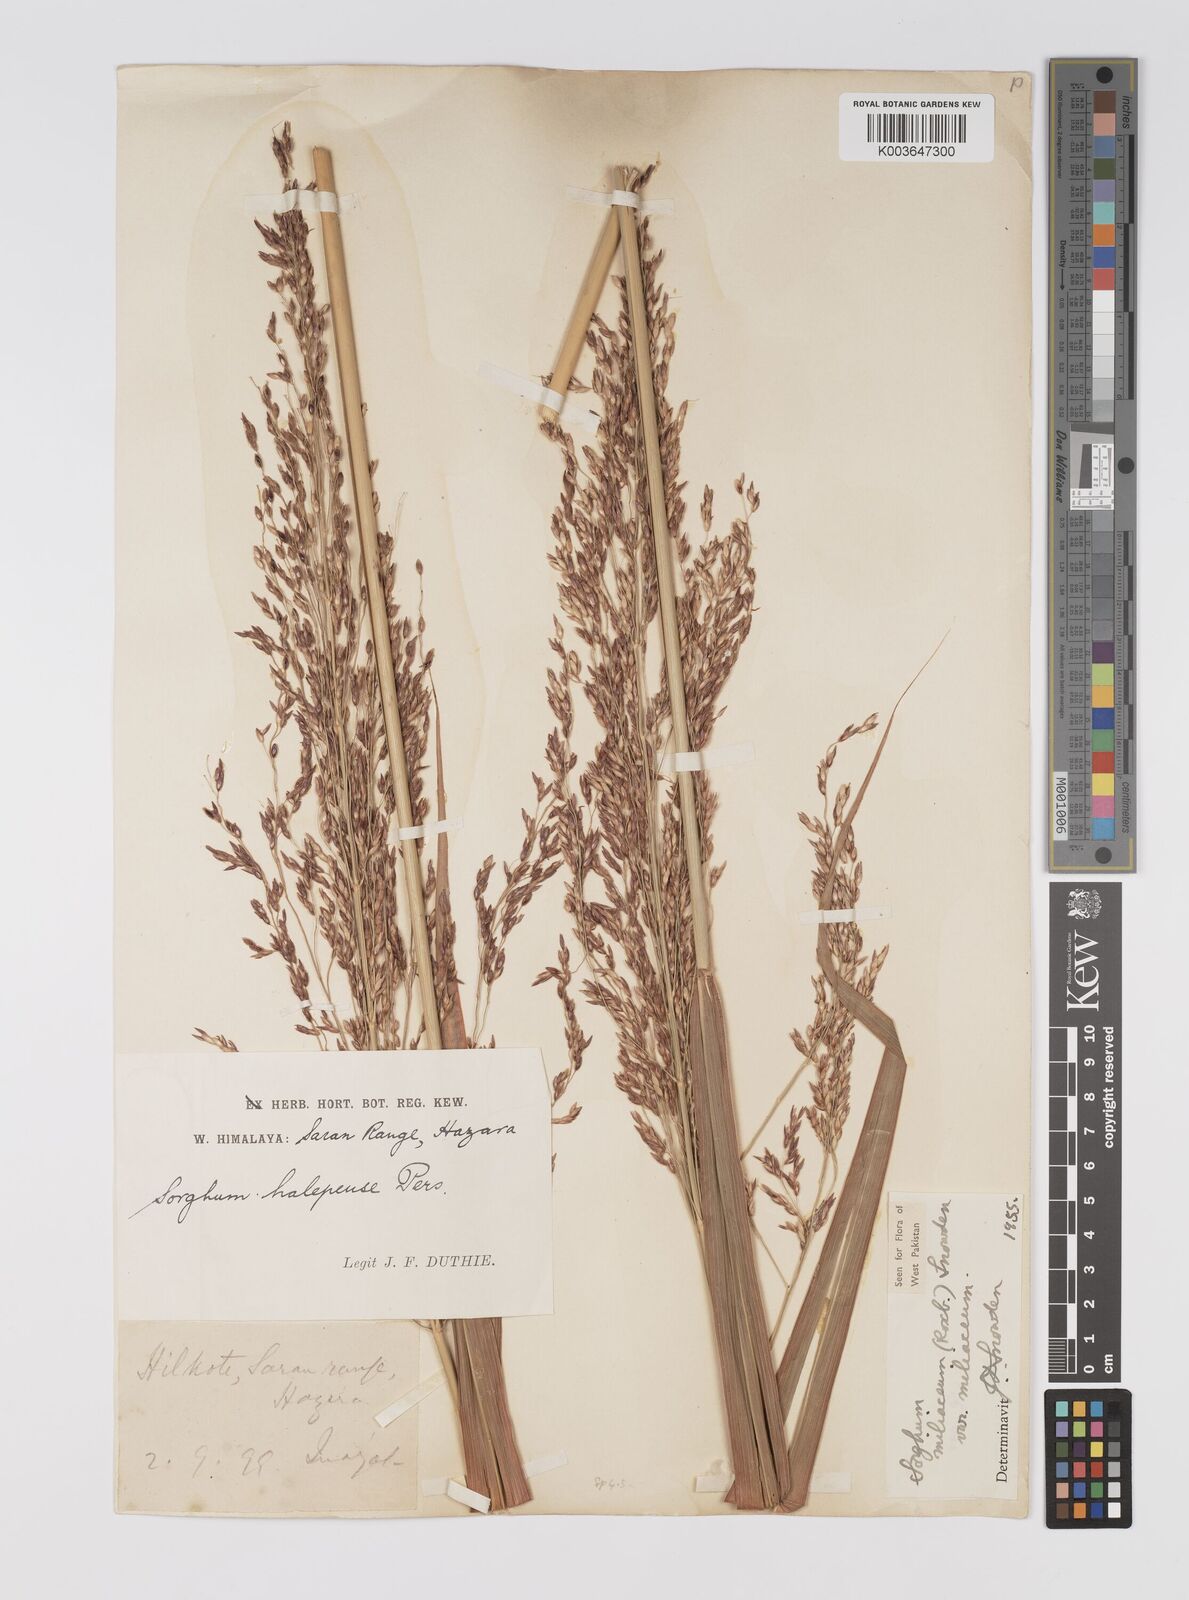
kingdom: Plantae
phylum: Tracheophyta
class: Liliopsida
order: Poales
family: Poaceae
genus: Sorghum
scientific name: Sorghum halepense
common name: Johnson-grass
